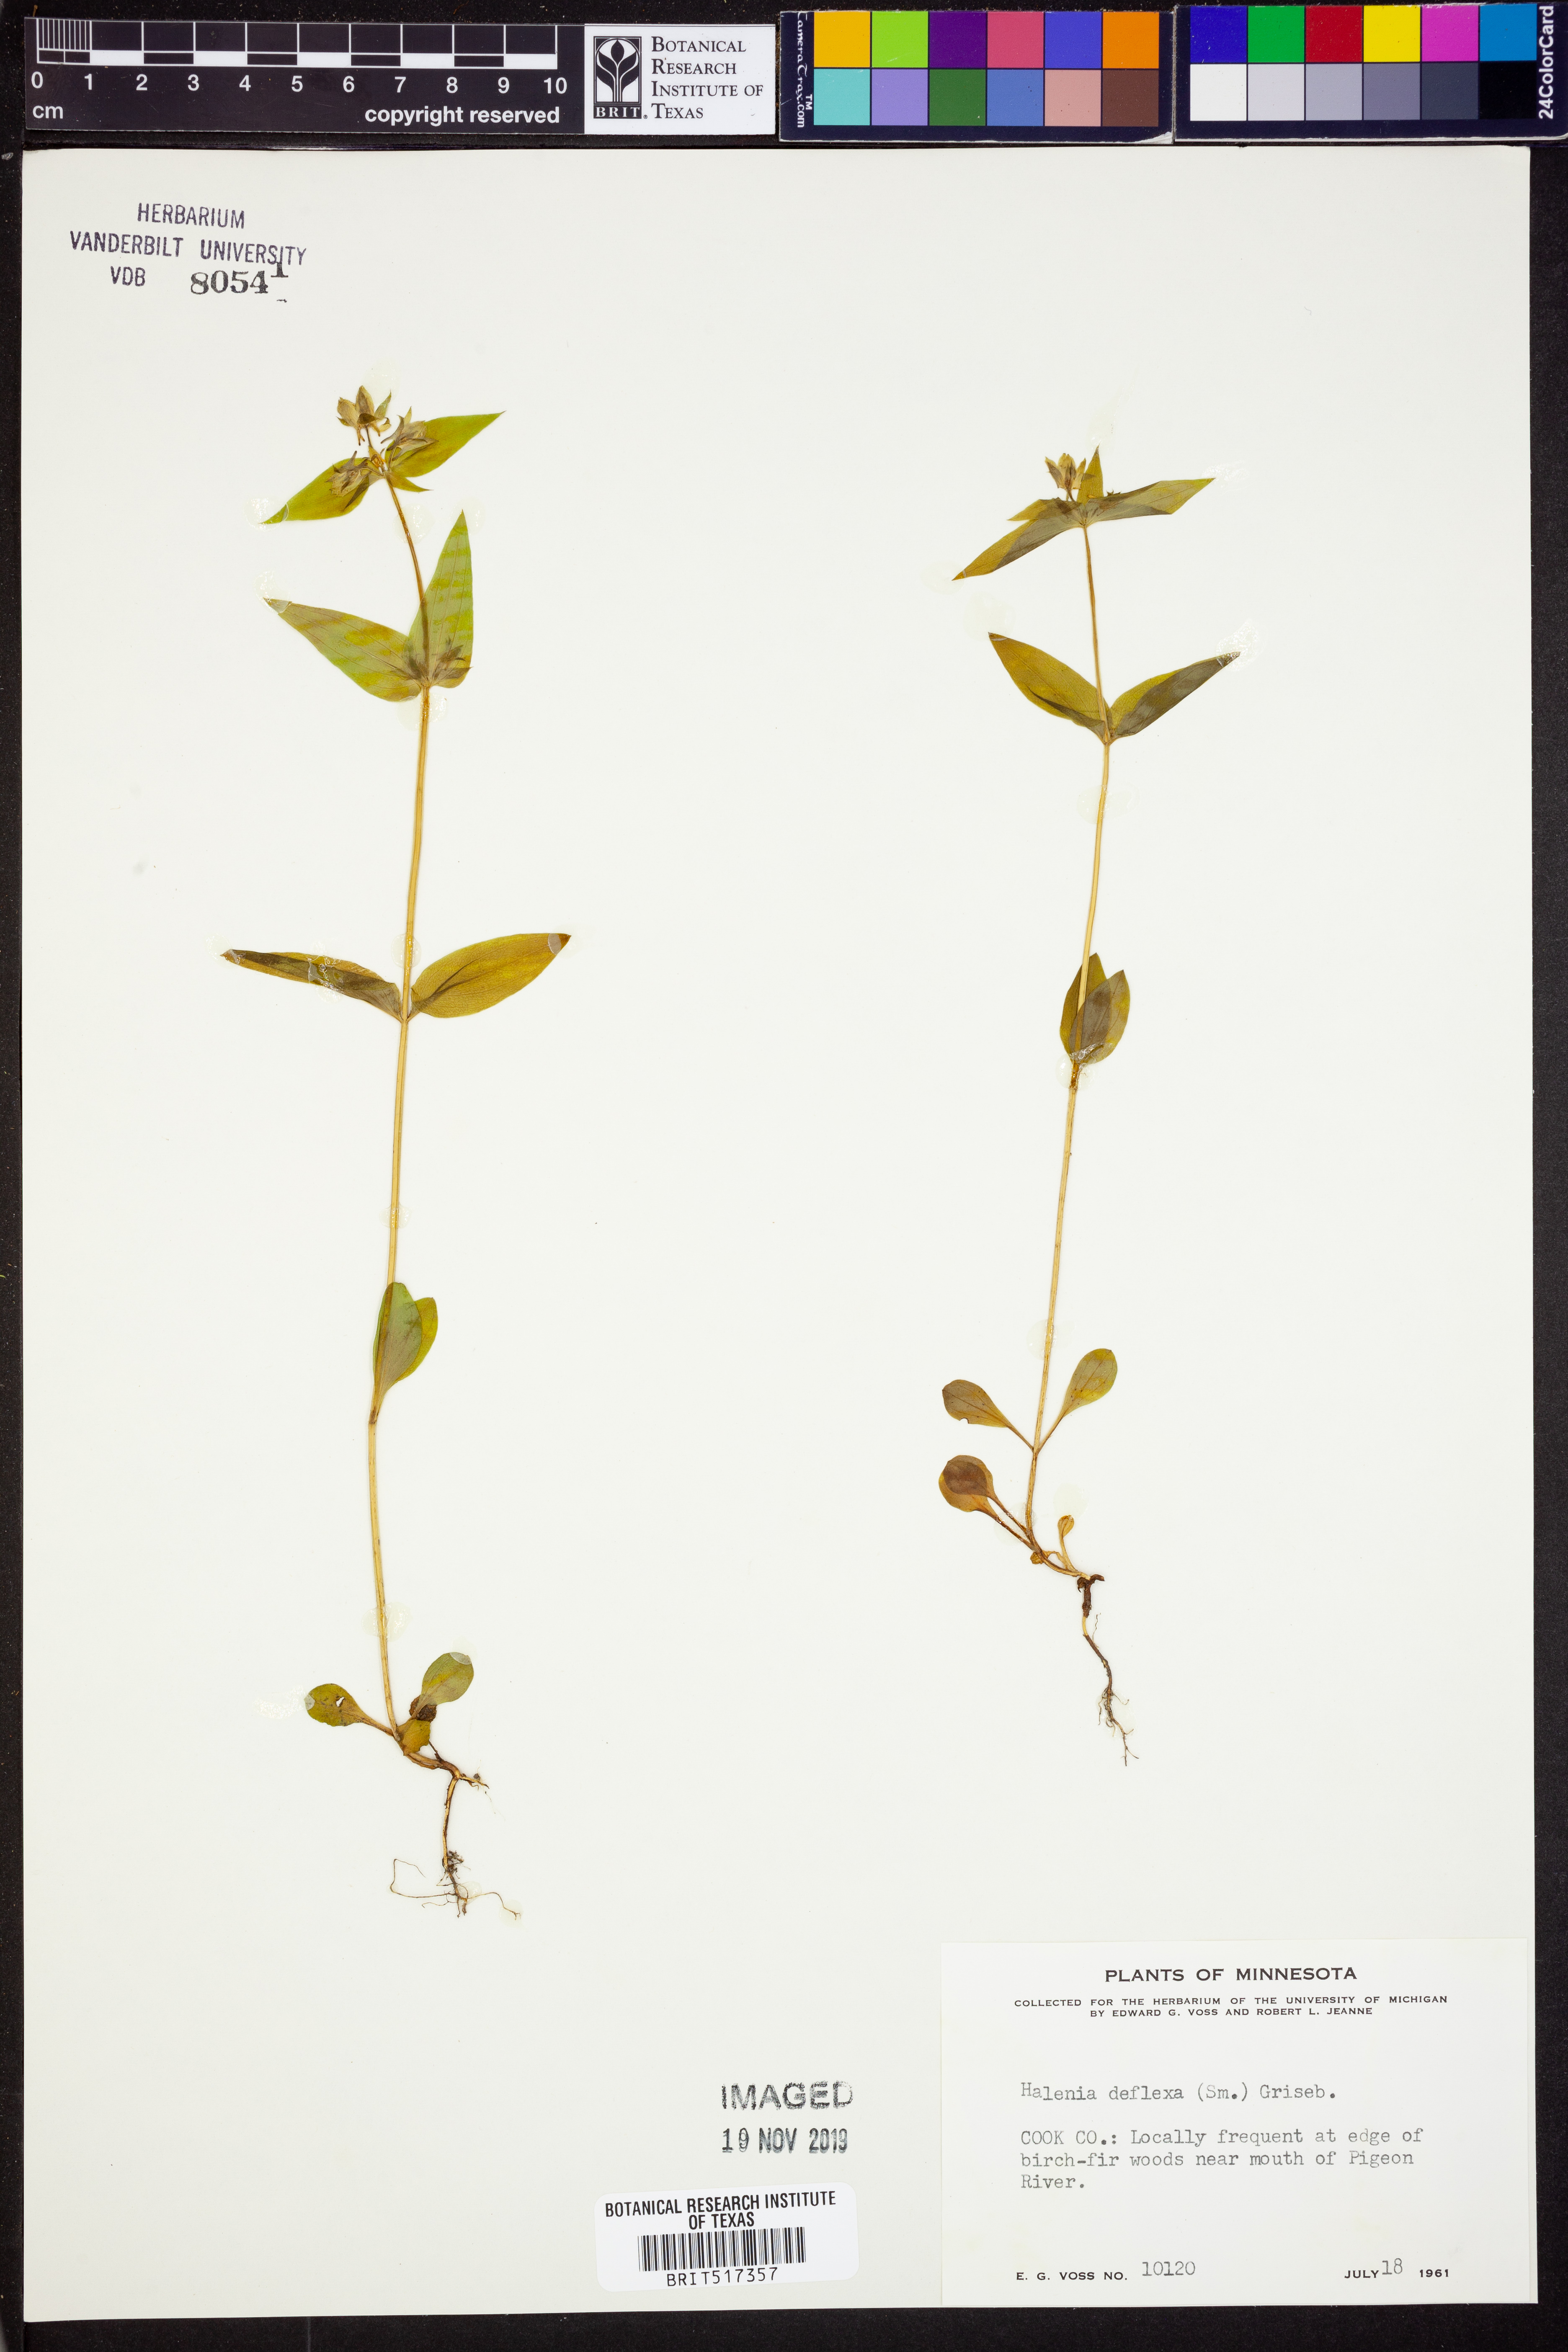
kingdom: Plantae
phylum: Tracheophyta
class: Magnoliopsida
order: Gentianales
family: Gentianaceae
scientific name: Gentianaceae
